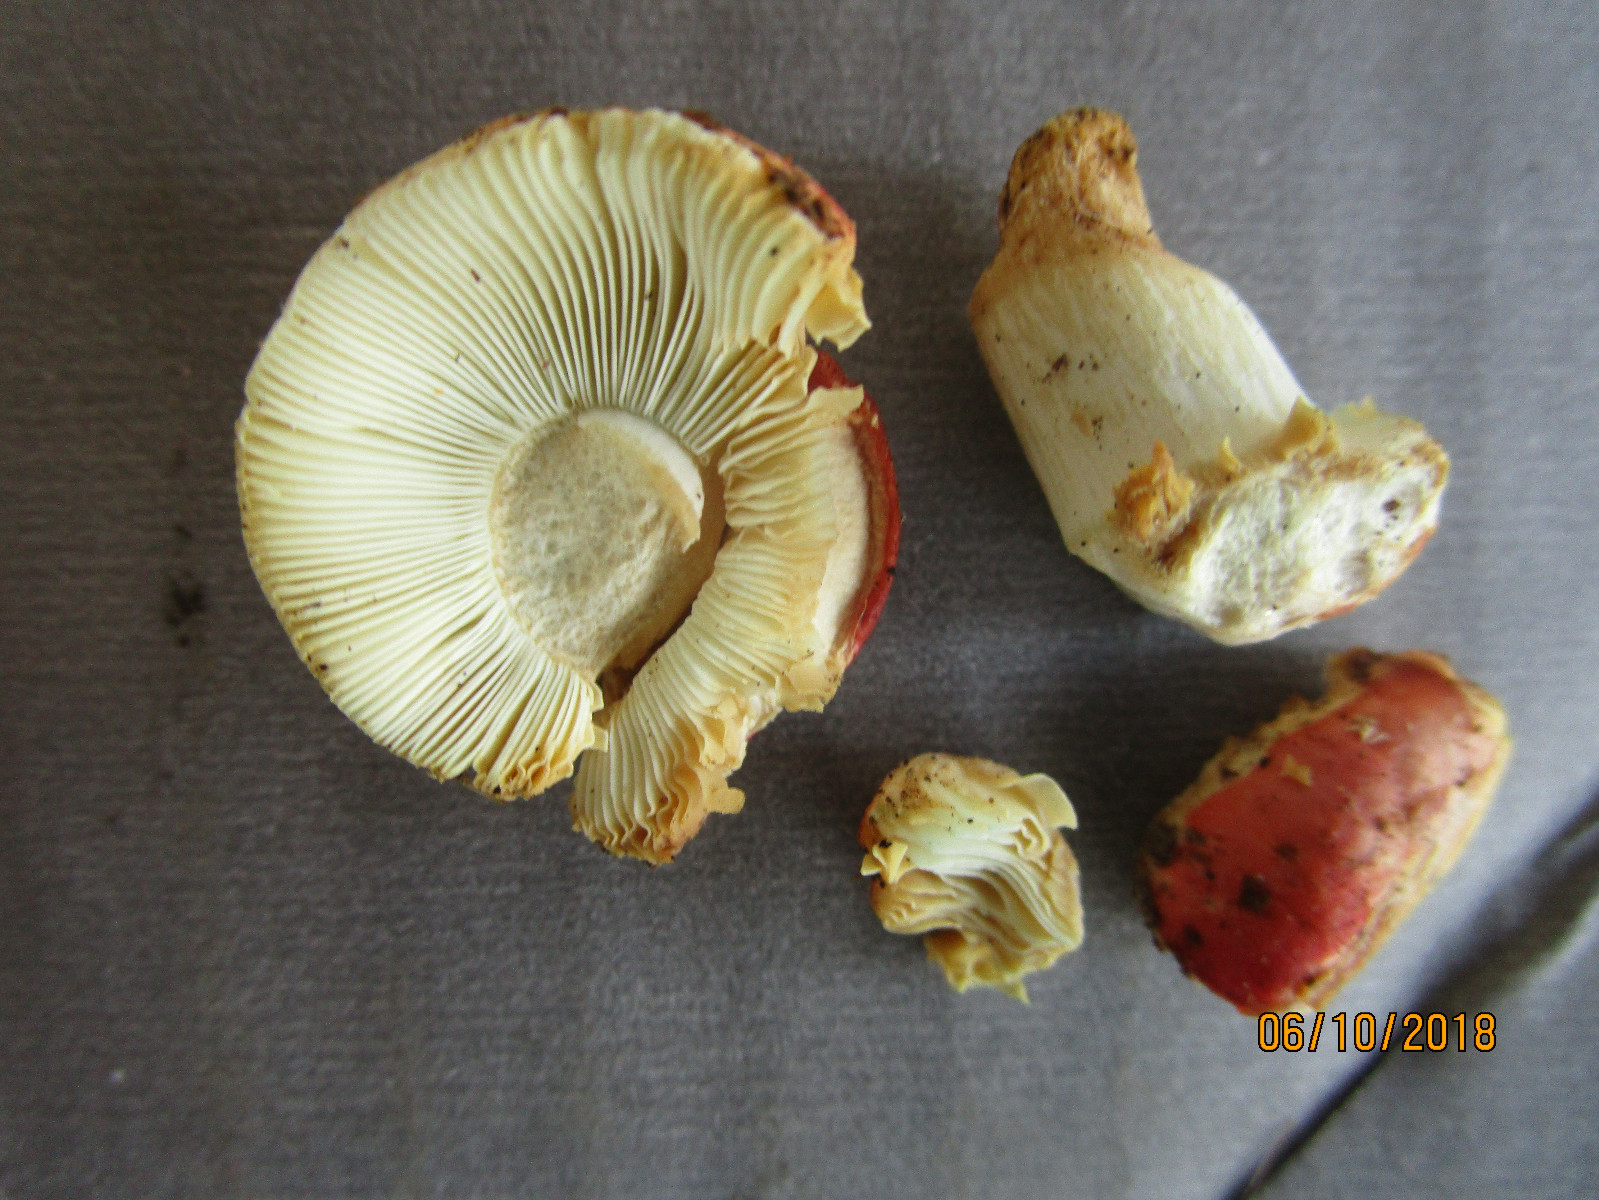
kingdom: Fungi
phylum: Basidiomycota
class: Agaricomycetes
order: Russulales
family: Russulaceae
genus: Russula
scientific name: Russula luteotacta
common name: gulplettet gift-skørhat
